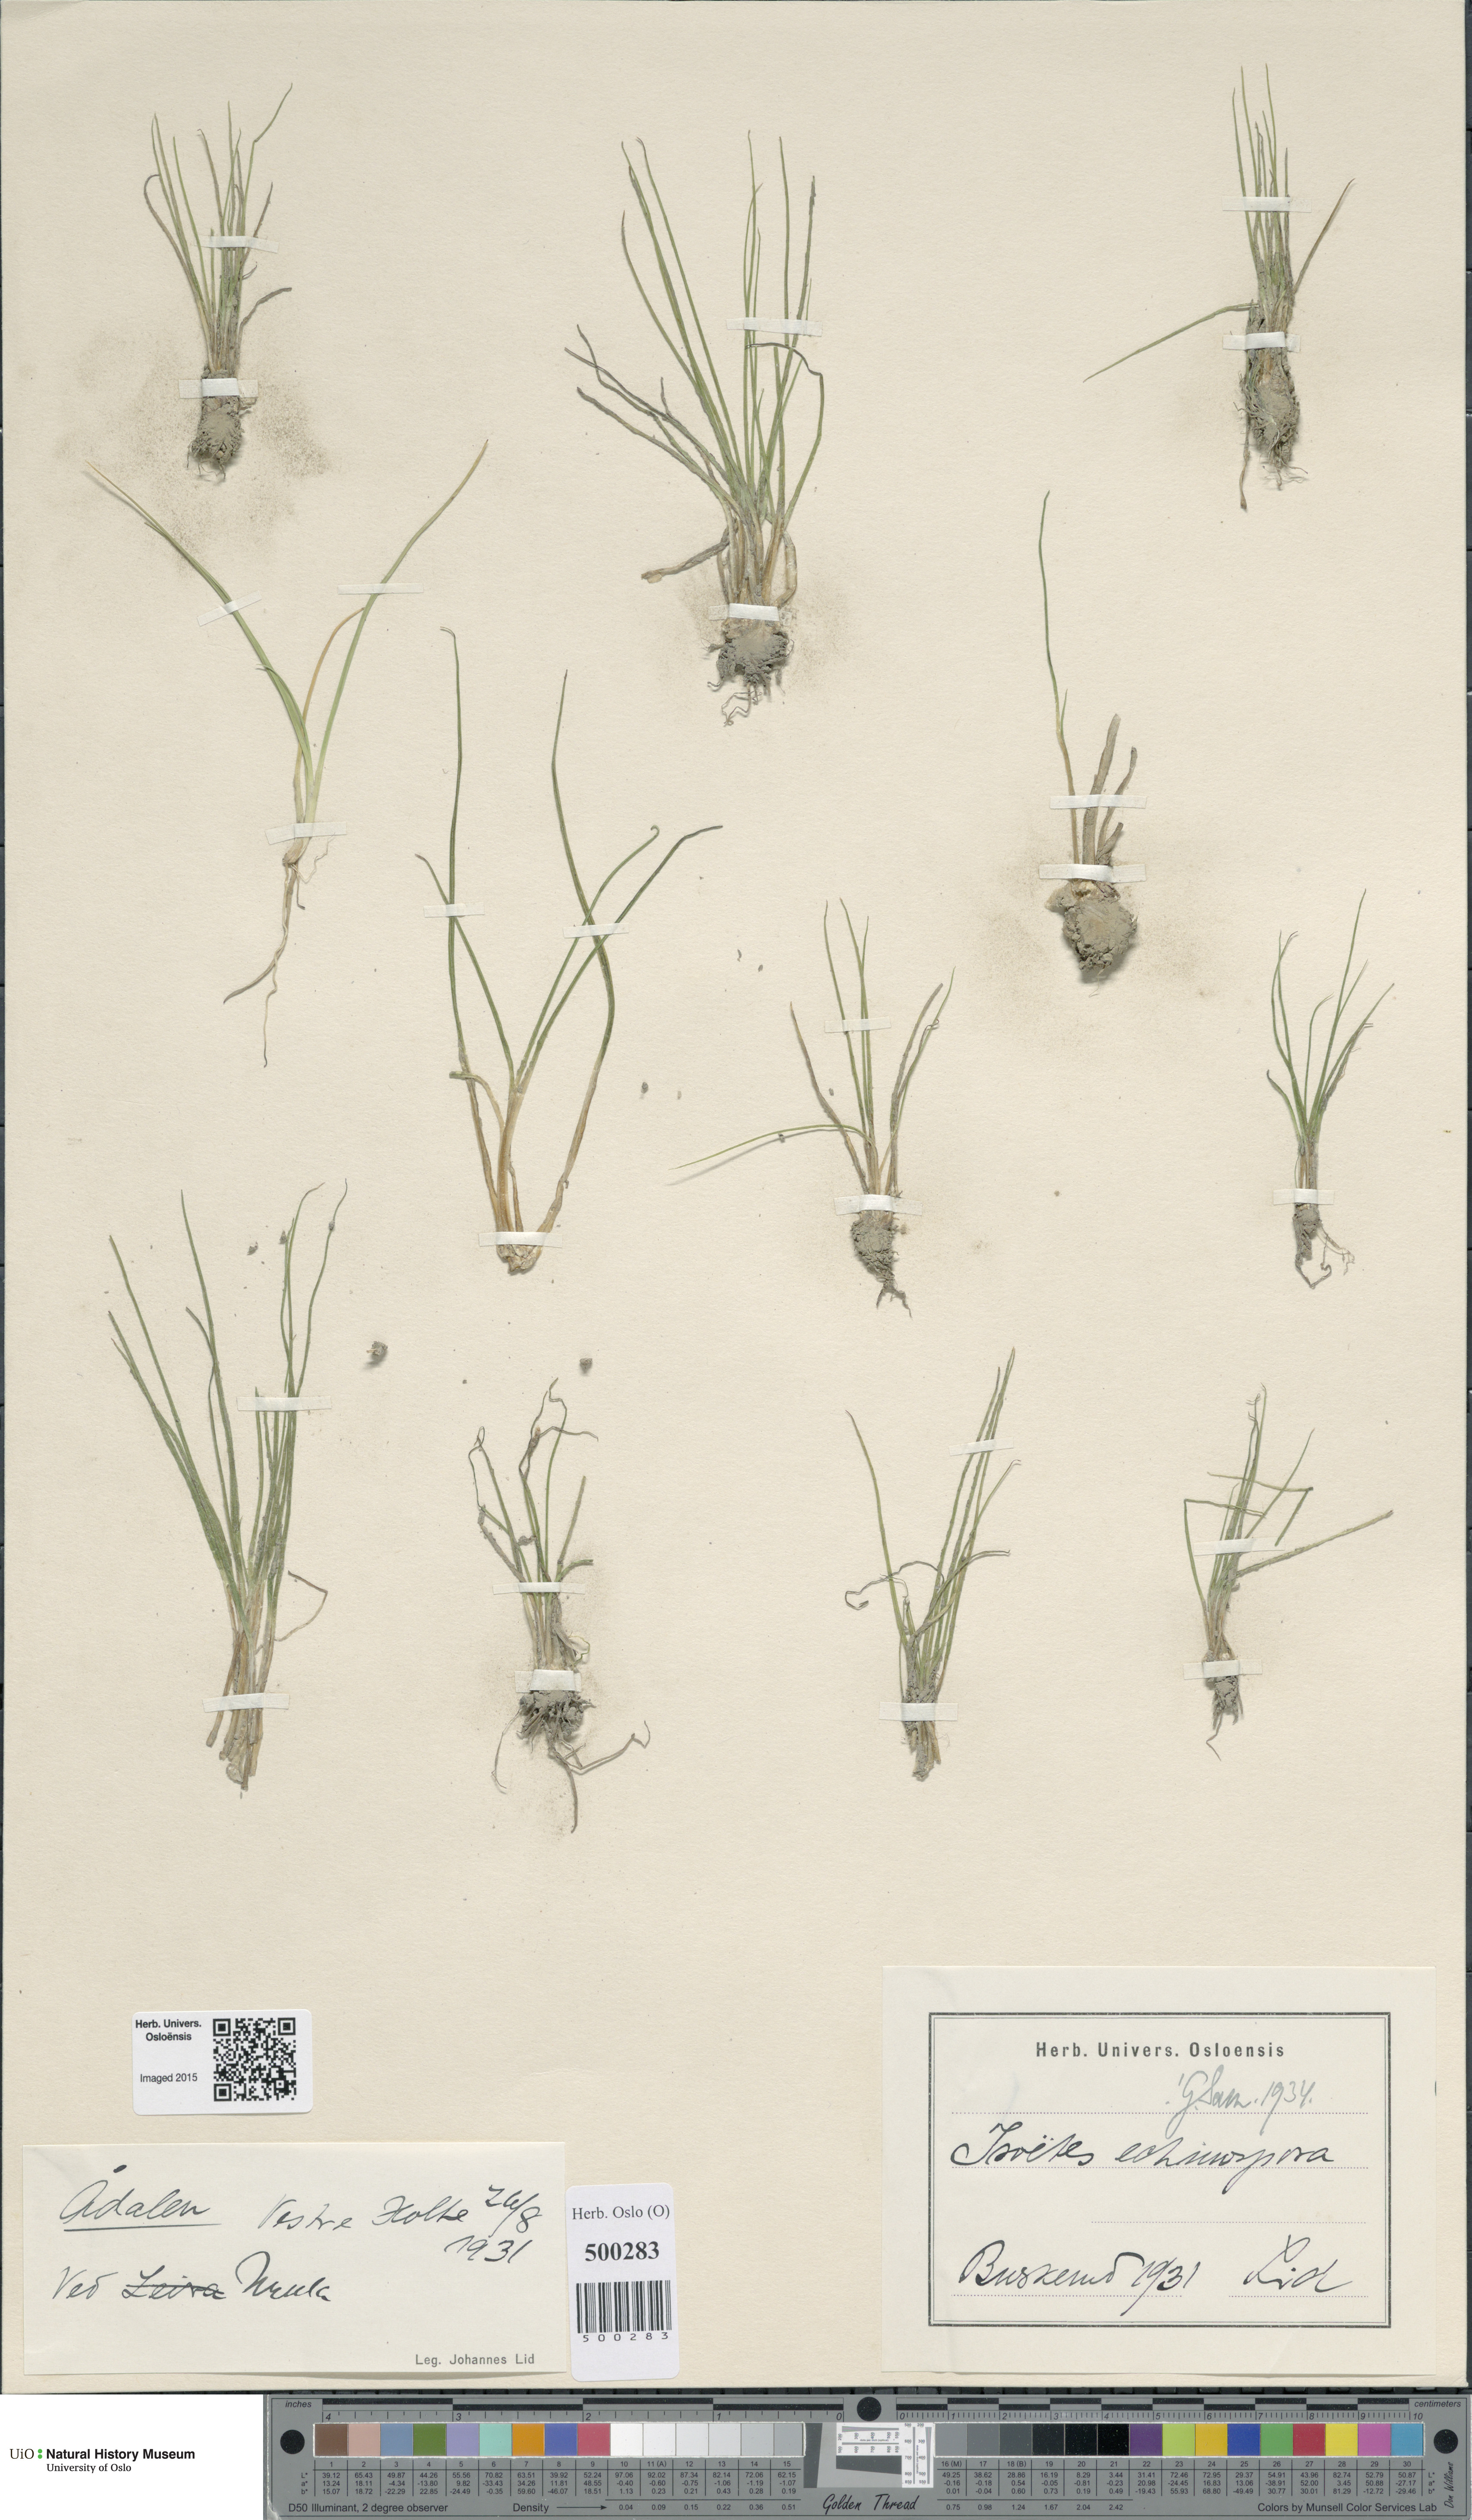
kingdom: Plantae
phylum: Tracheophyta
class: Lycopodiopsida
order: Isoetales
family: Isoetaceae
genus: Isoetes
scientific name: Isoetes echinospora
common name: Spring quillwort
